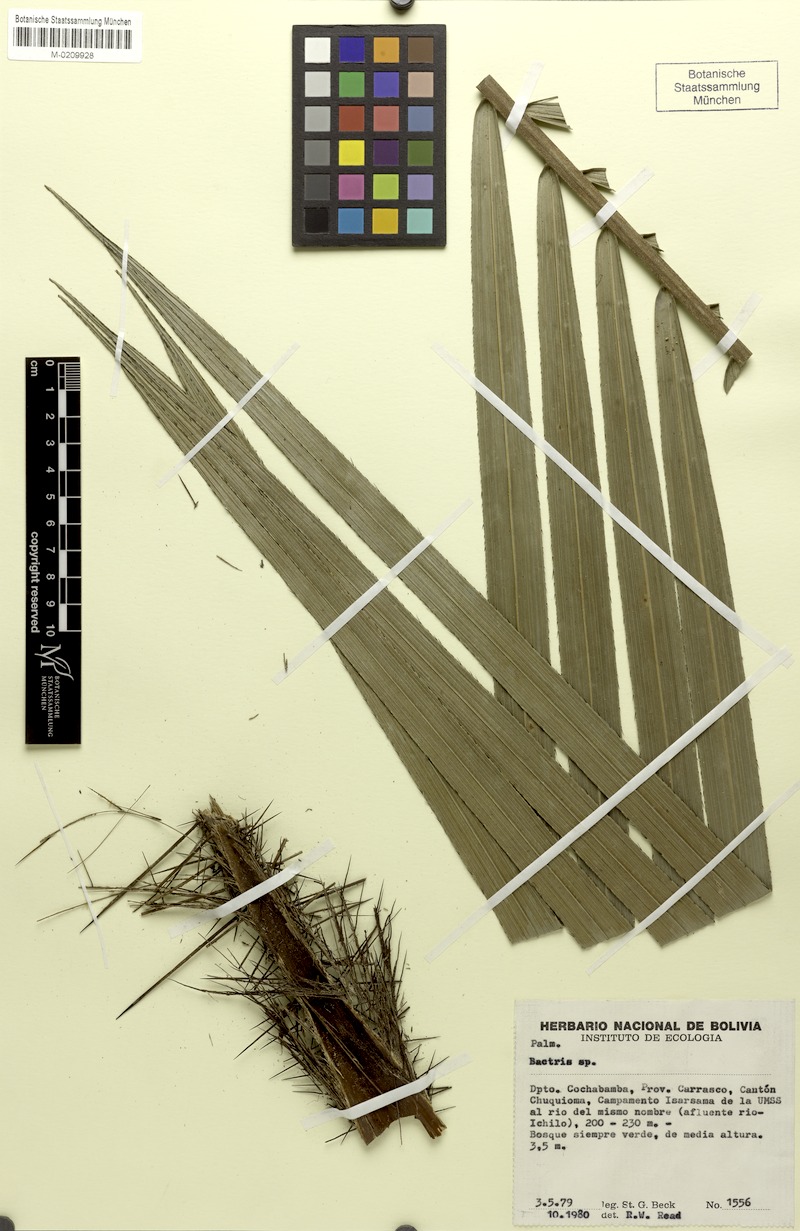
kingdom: Plantae
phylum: Tracheophyta
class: Liliopsida
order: Arecales
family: Arecaceae
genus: Bactris
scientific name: Bactris
